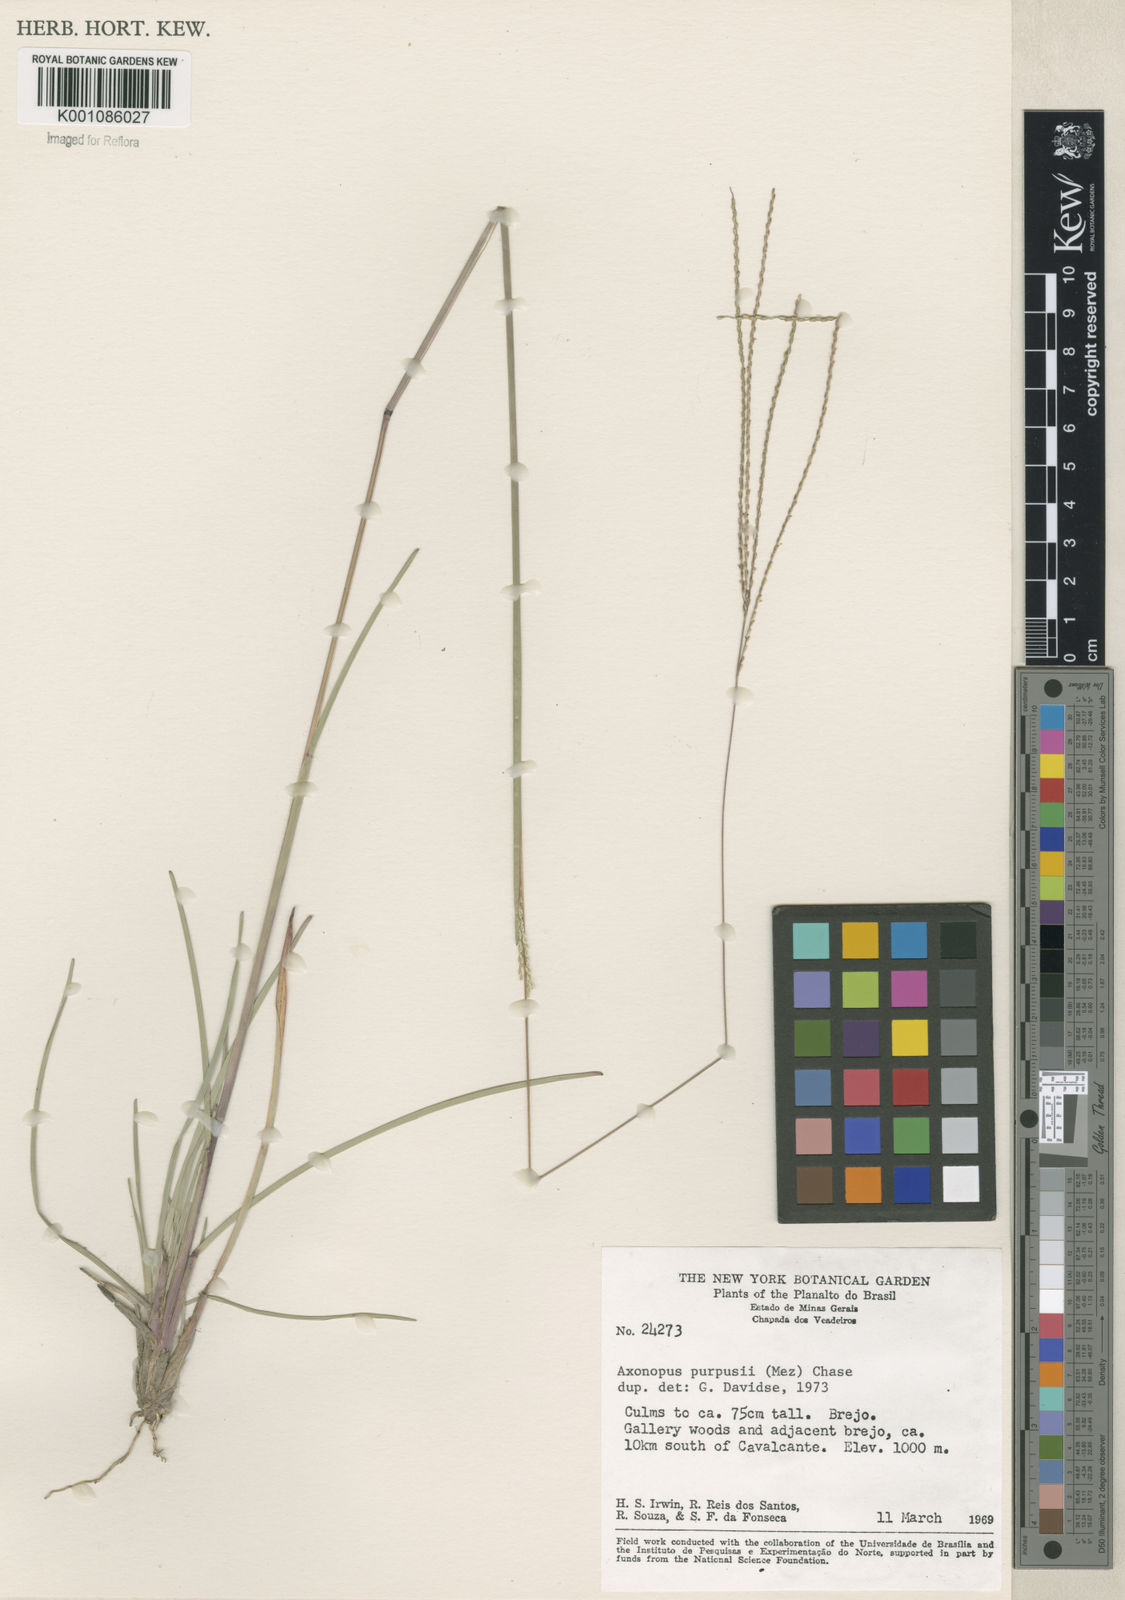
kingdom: Plantae
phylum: Tracheophyta
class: Liliopsida
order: Poales
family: Poaceae
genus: Axonopus
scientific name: Axonopus purpusii
